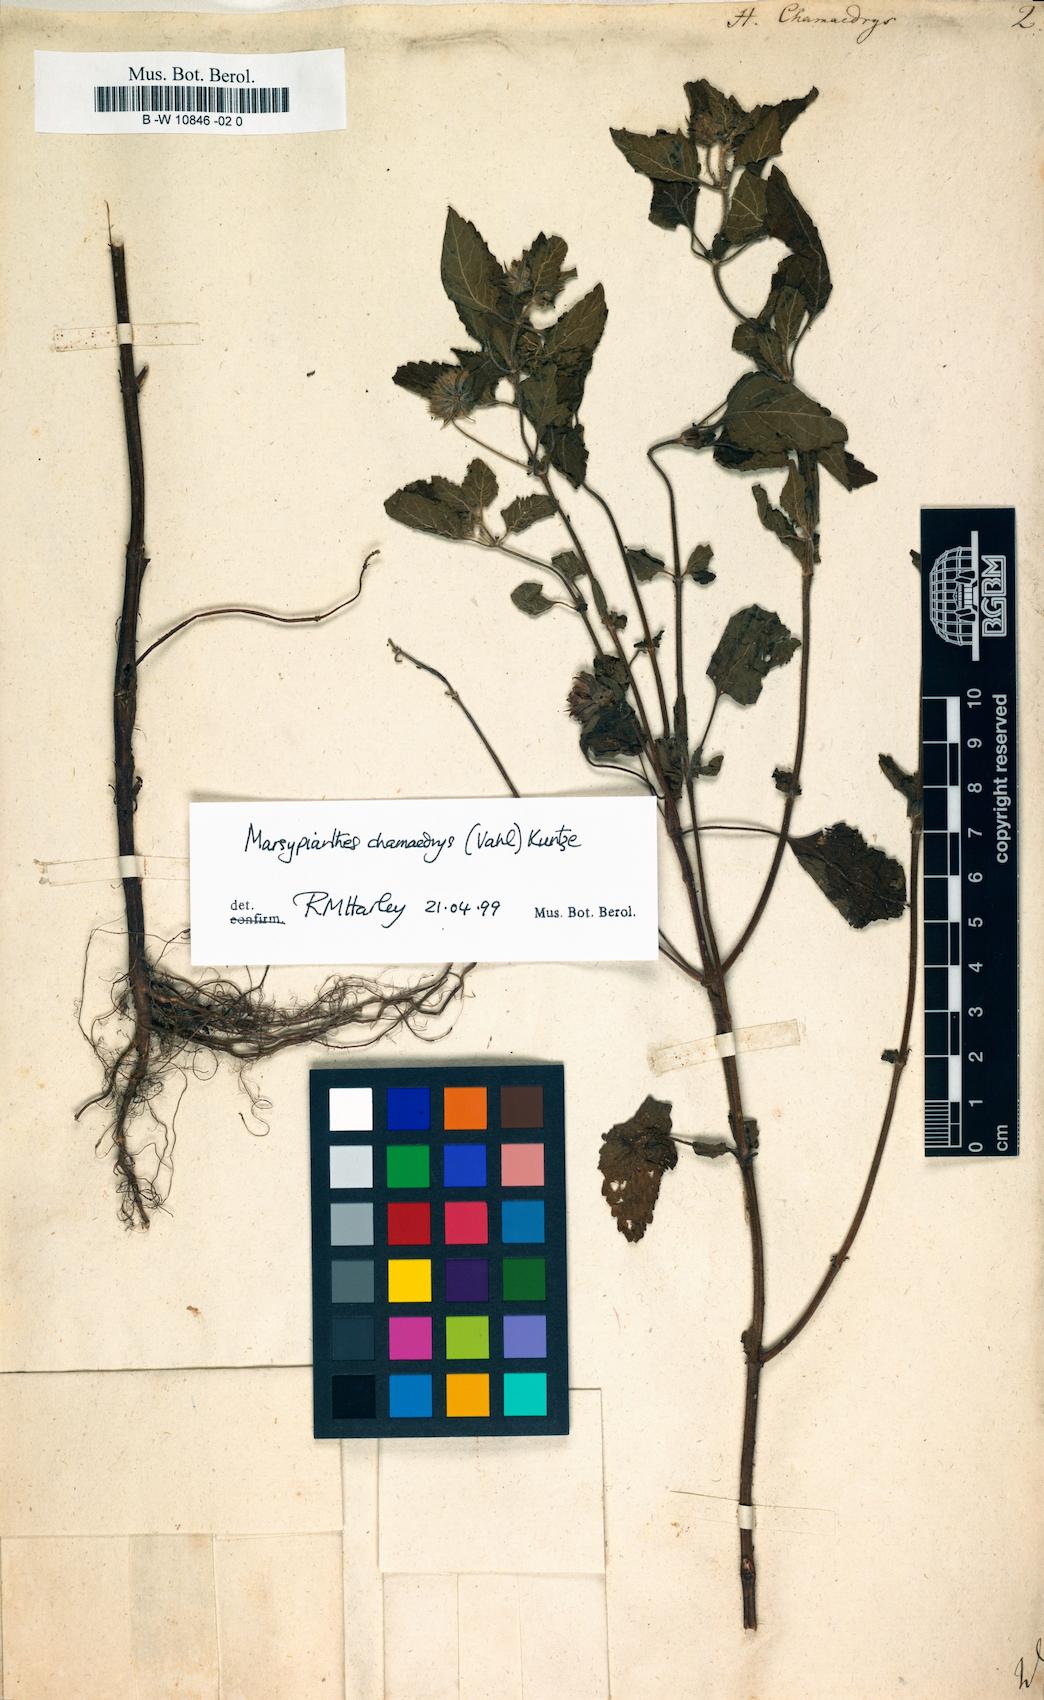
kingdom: Plantae
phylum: Tracheophyta
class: Magnoliopsida
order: Lamiales
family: Lamiaceae
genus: Marsypianthes
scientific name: Marsypianthes chamaedrys
